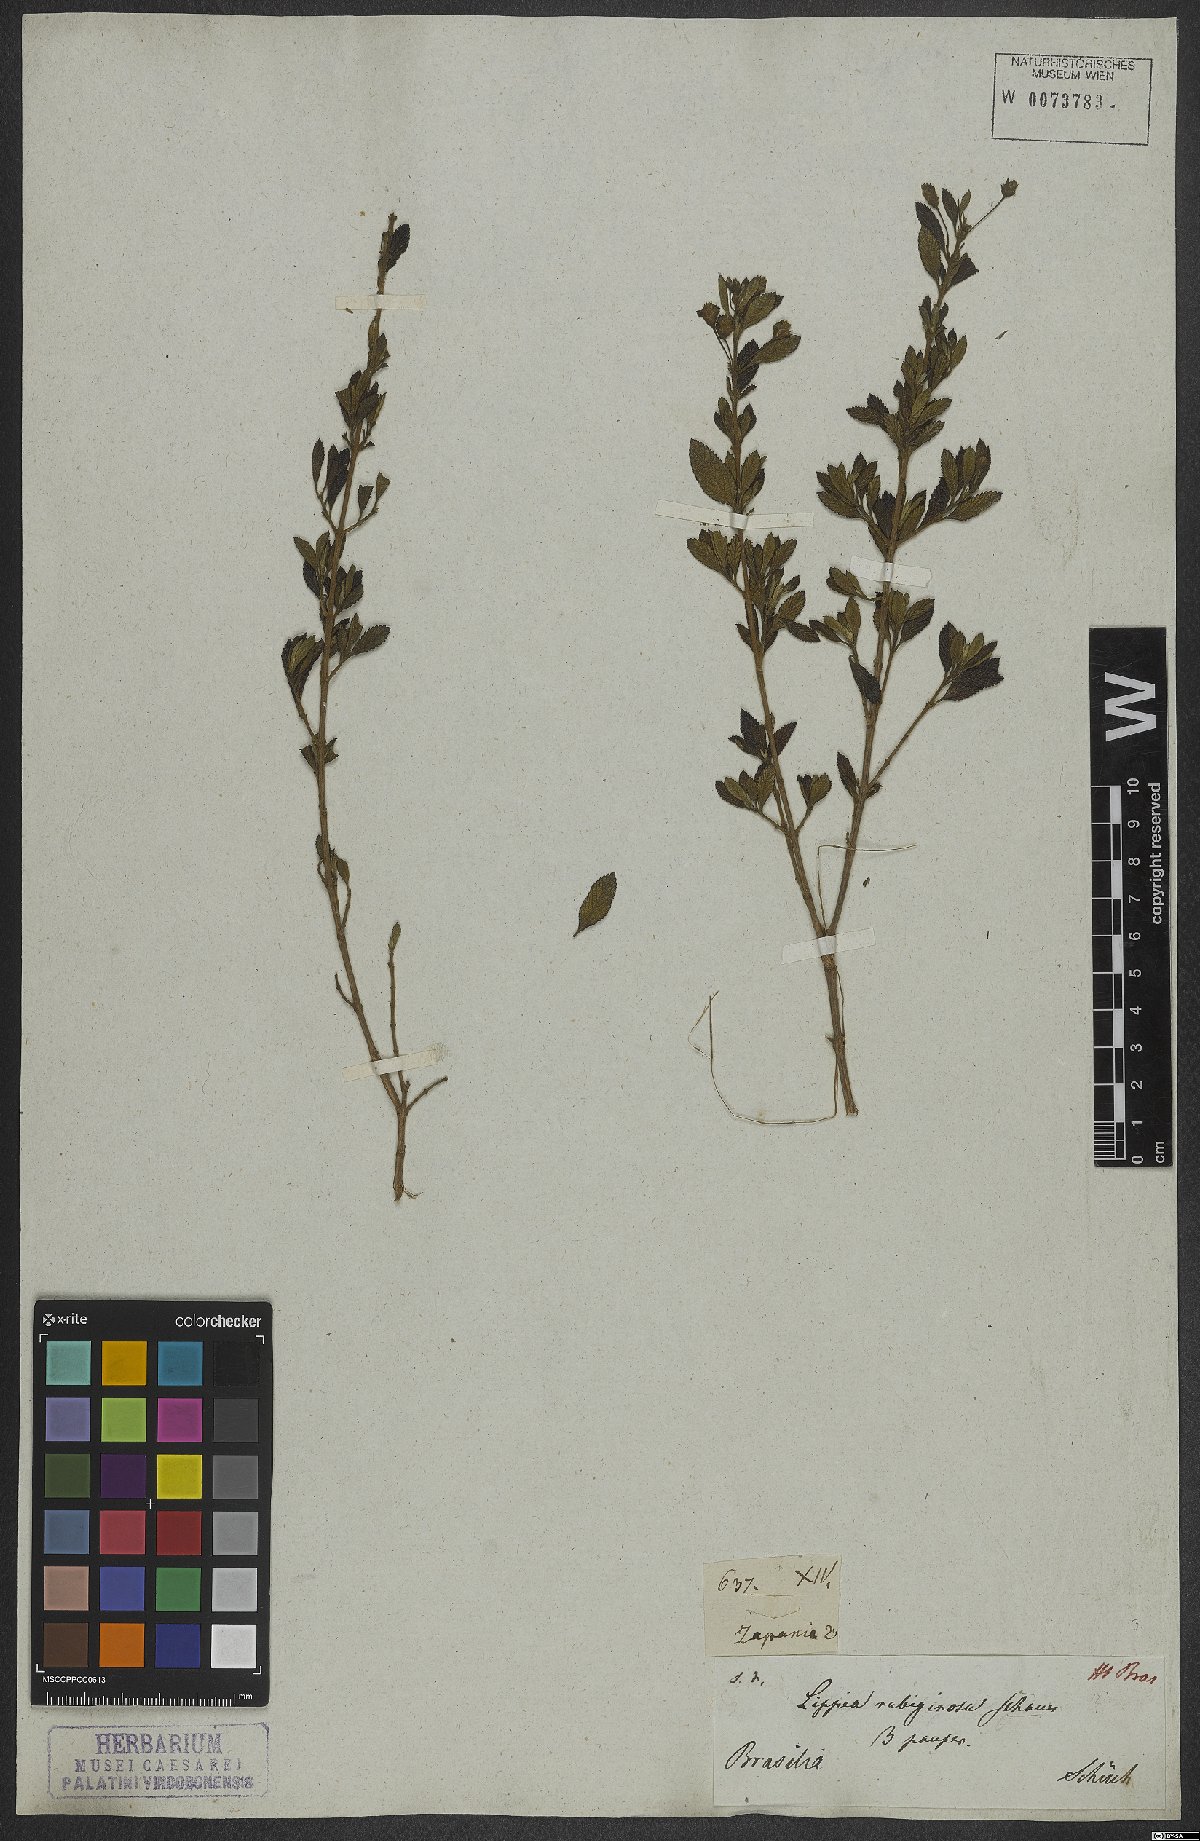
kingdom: Plantae
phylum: Tracheophyta
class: Magnoliopsida
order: Lamiales
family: Verbenaceae
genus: Lippia
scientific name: Lippia origanoides
